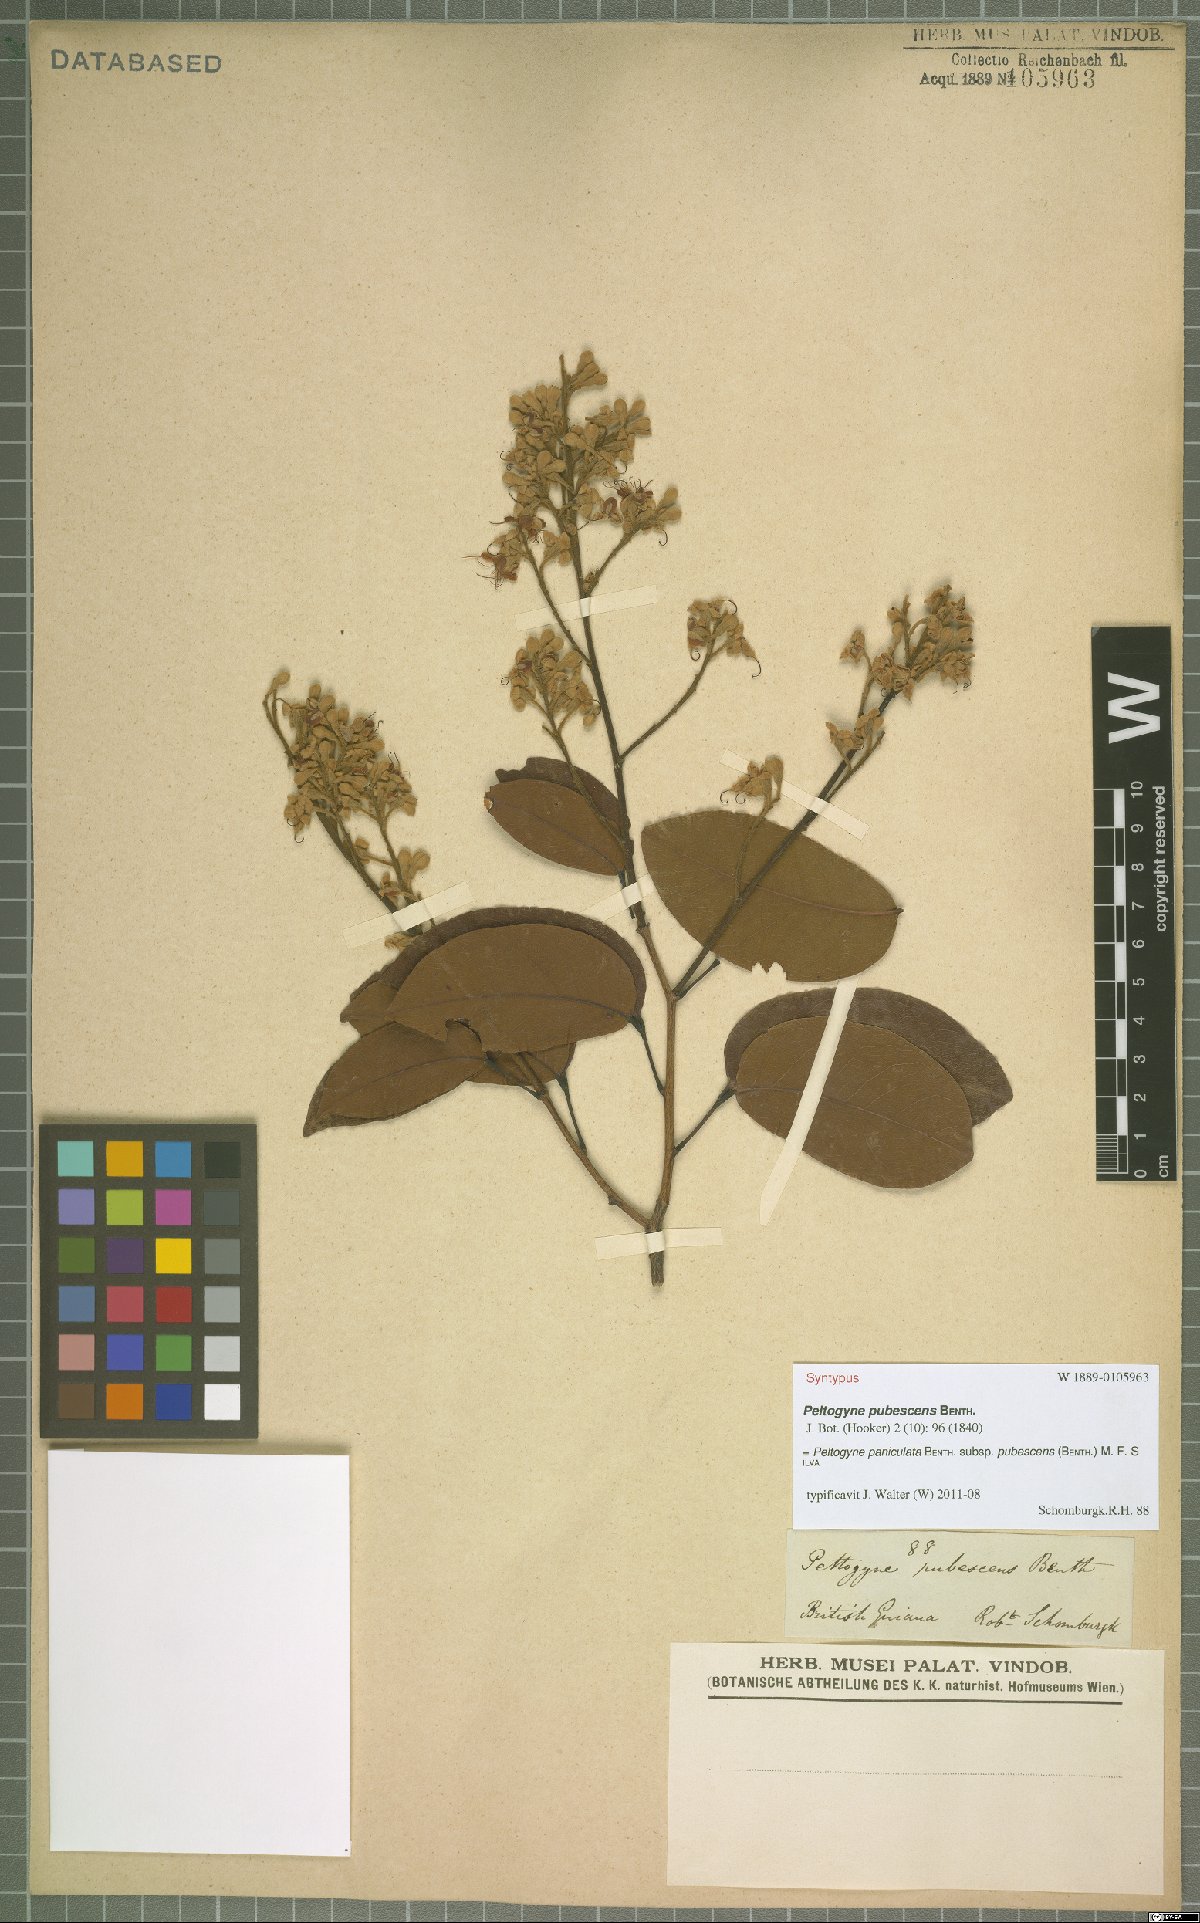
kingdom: Plantae
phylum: Tracheophyta
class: Magnoliopsida
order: Fabales
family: Fabaceae
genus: Peltogyne
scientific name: Peltogyne paniculata
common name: Purpleheart
